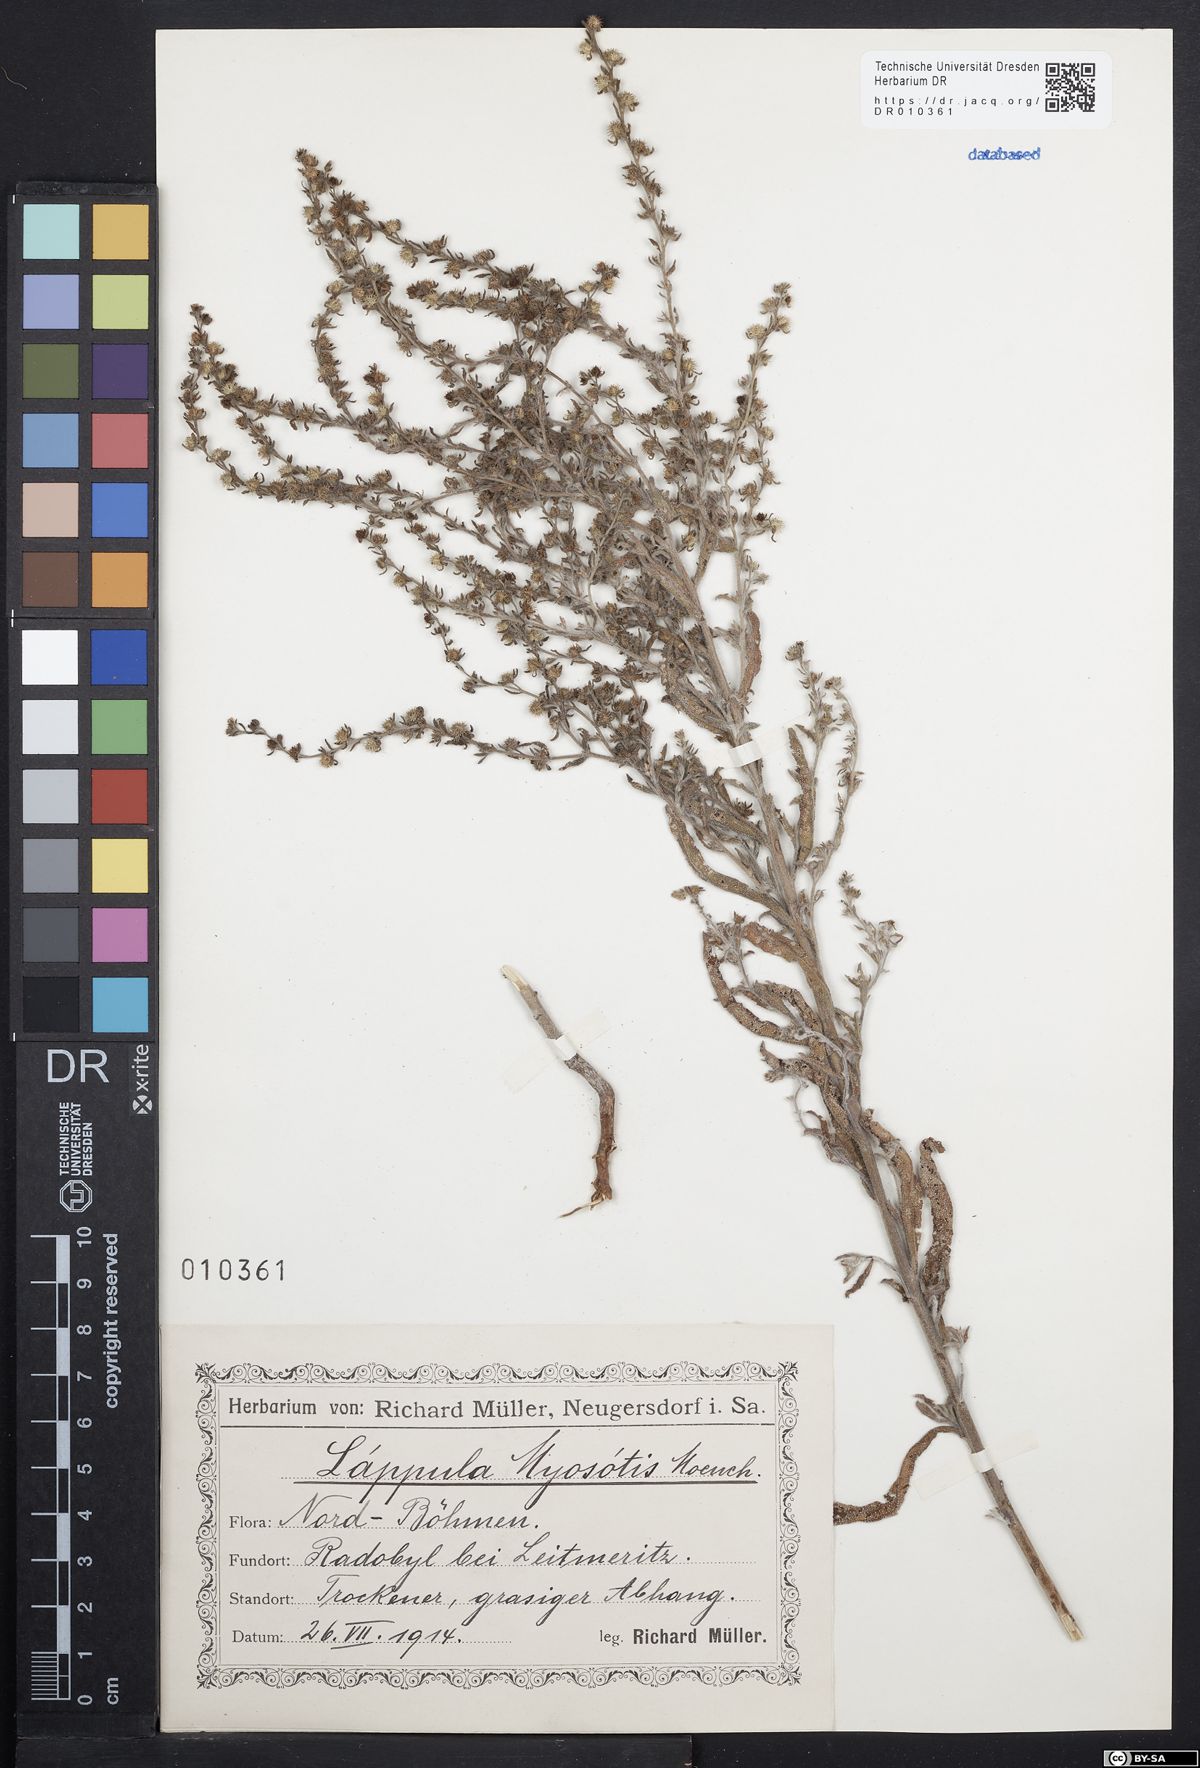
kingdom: Plantae
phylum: Tracheophyta
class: Magnoliopsida
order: Boraginales
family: Boraginaceae
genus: Lappula
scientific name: Lappula squarrosa
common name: European stickseed
